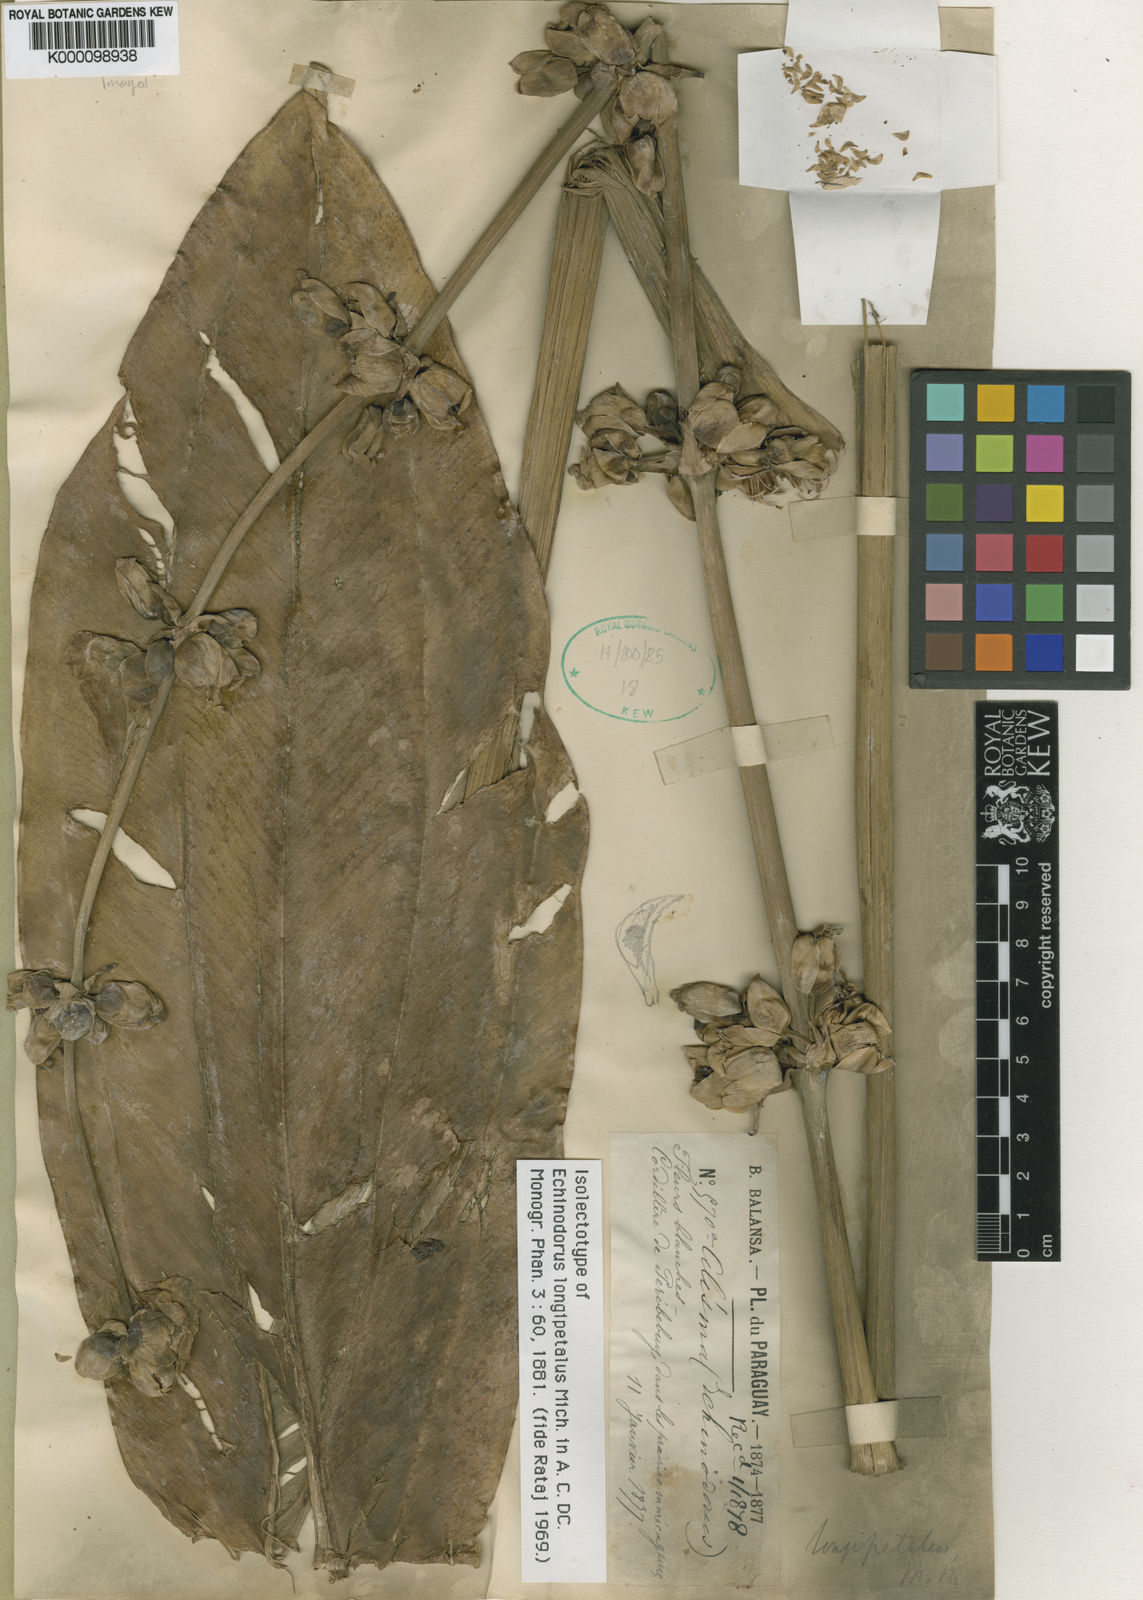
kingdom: Plantae
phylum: Tracheophyta
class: Liliopsida
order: Alismatales
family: Alismataceae
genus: Aquarius
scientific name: Aquarius longipetalus
